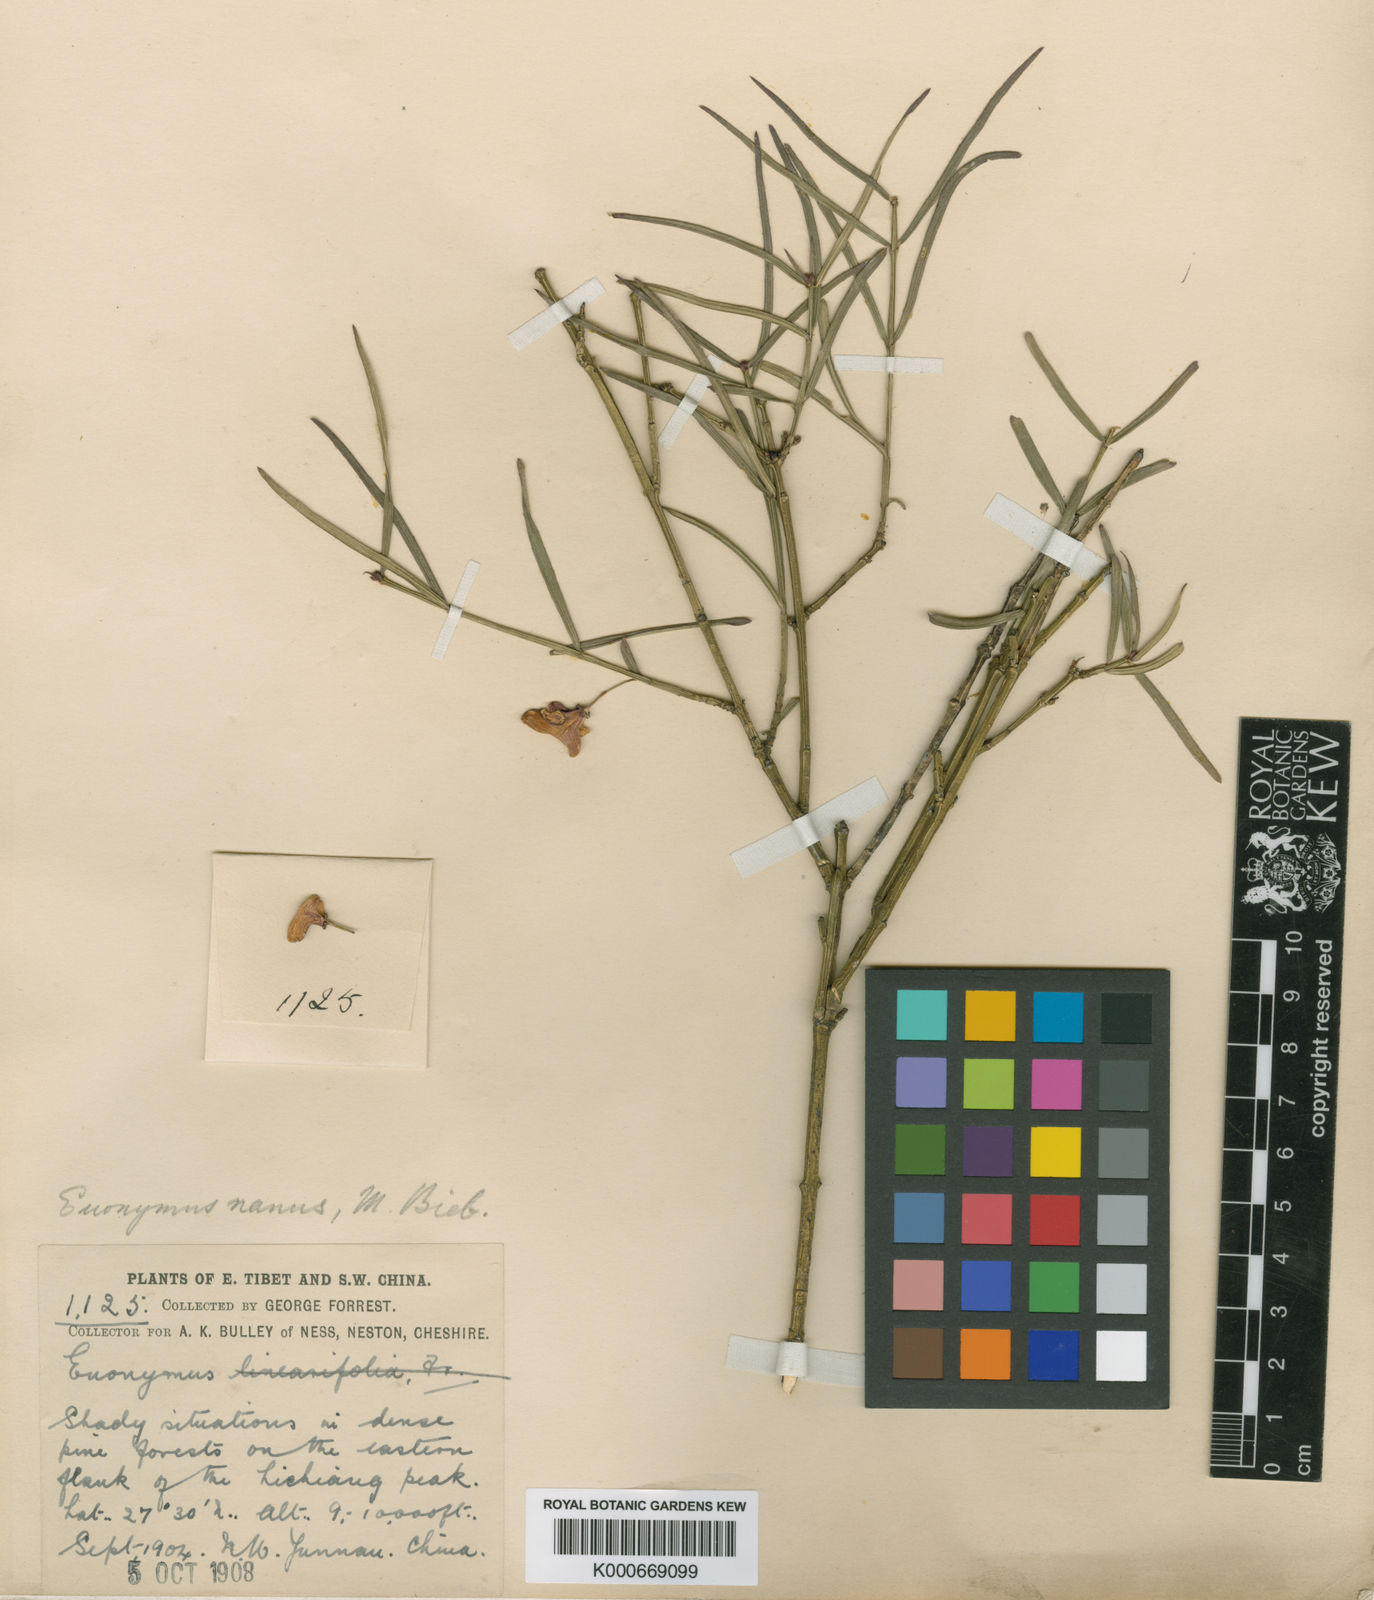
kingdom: Plantae
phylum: Tracheophyta
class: Magnoliopsida
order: Celastrales
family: Celastraceae
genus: Euonymus
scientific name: Euonymus lichiangensis
